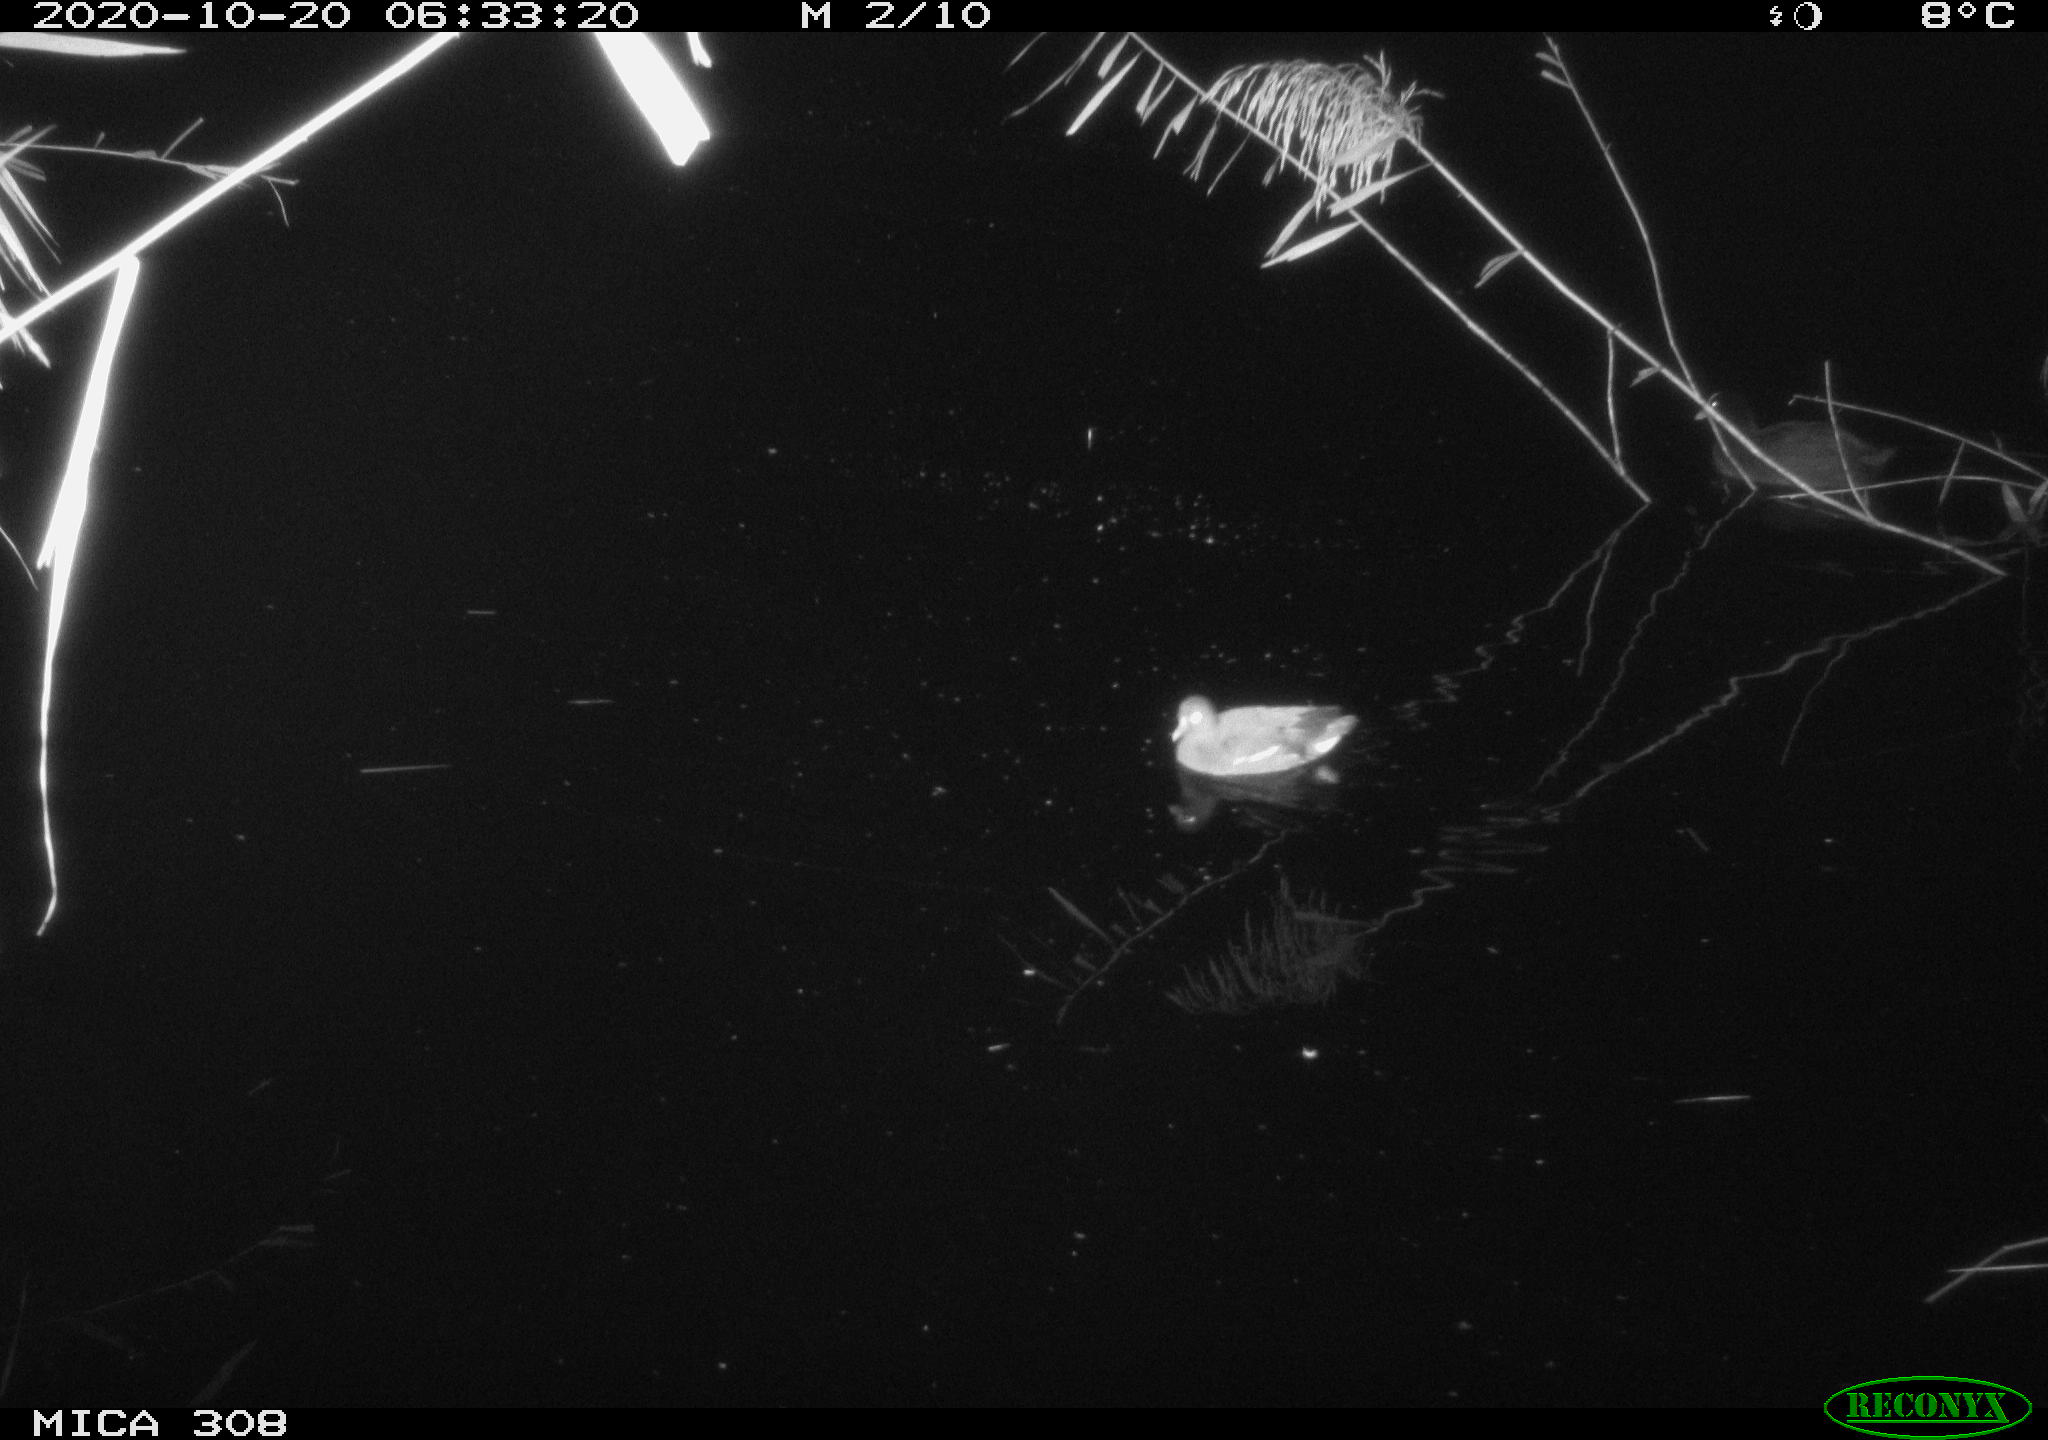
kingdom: Animalia
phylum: Chordata
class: Aves
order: Gruiformes
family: Rallidae
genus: Gallinula
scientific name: Gallinula chloropus
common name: Common moorhen
